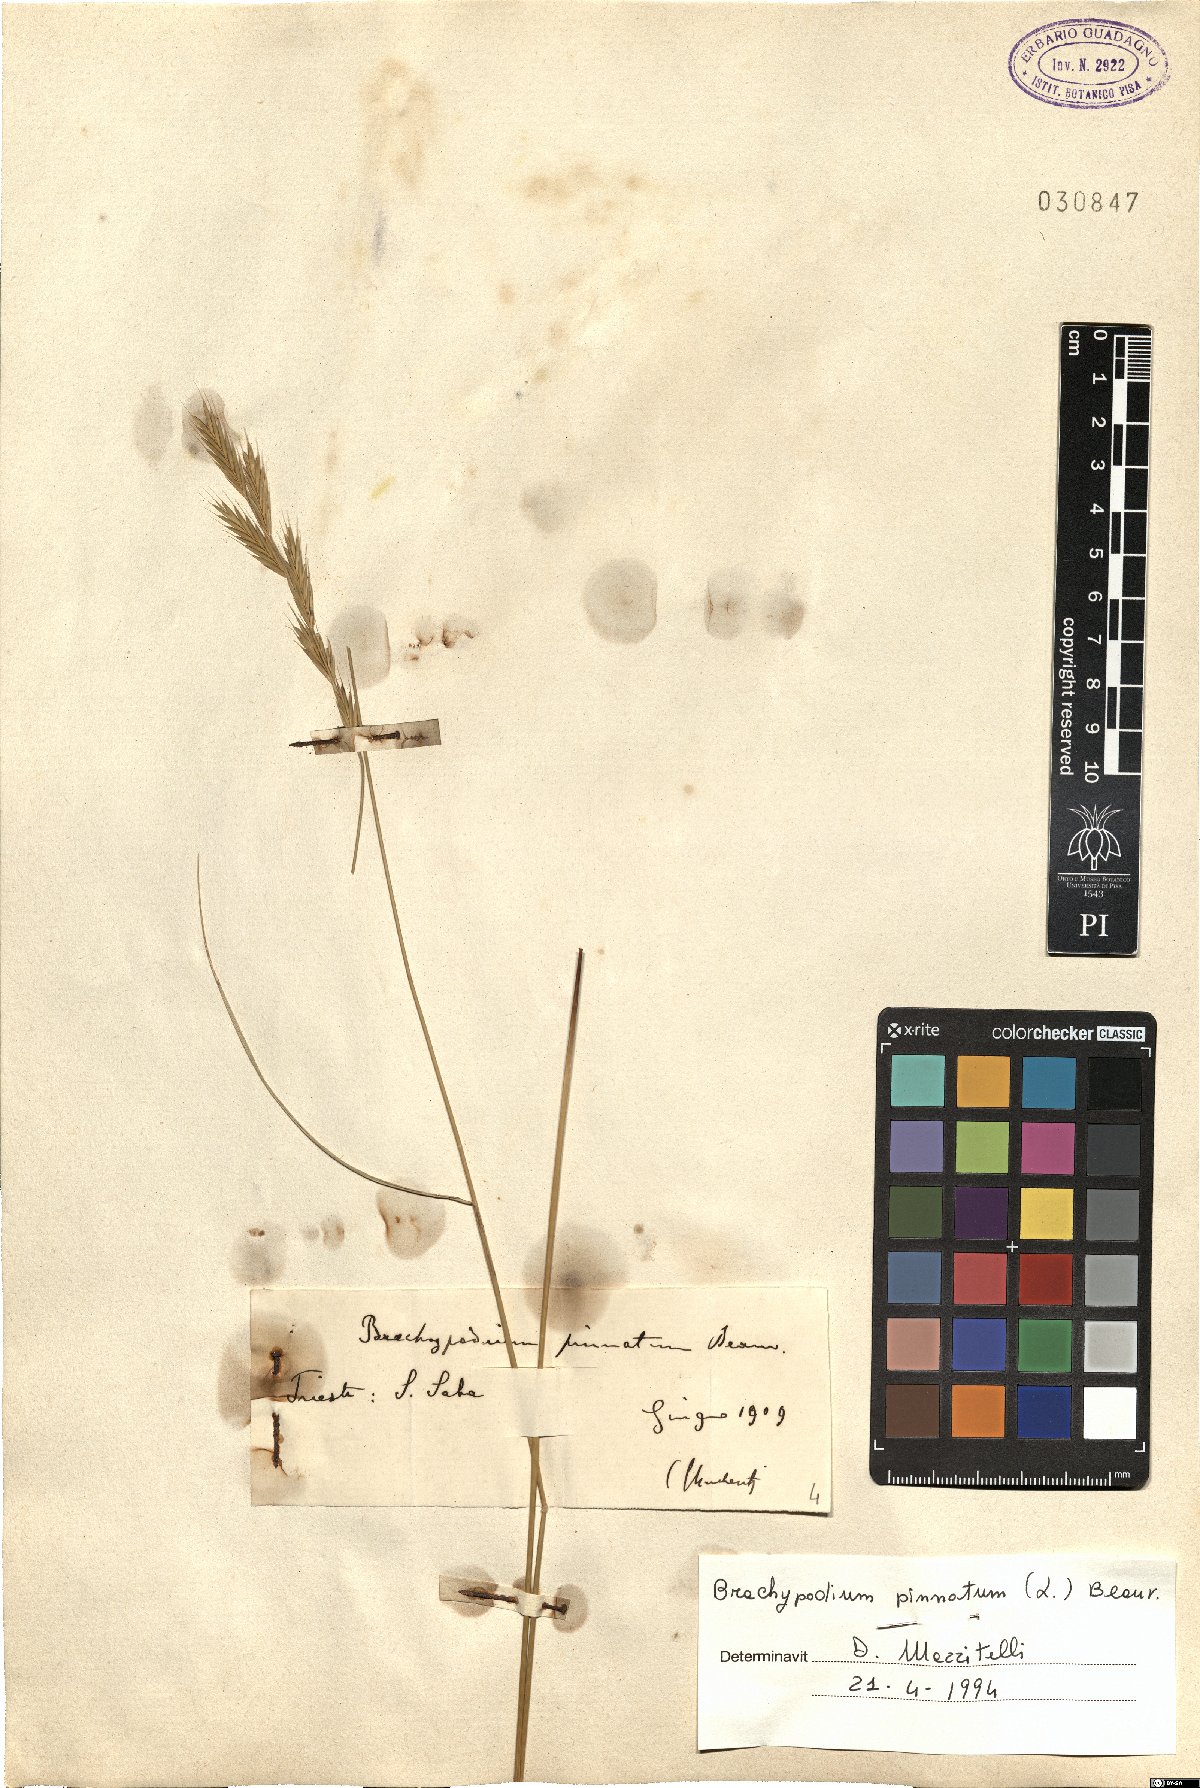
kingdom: Plantae
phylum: Tracheophyta
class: Liliopsida
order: Poales
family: Poaceae
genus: Brachypodium
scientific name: Brachypodium pinnatum
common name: Tor grass
